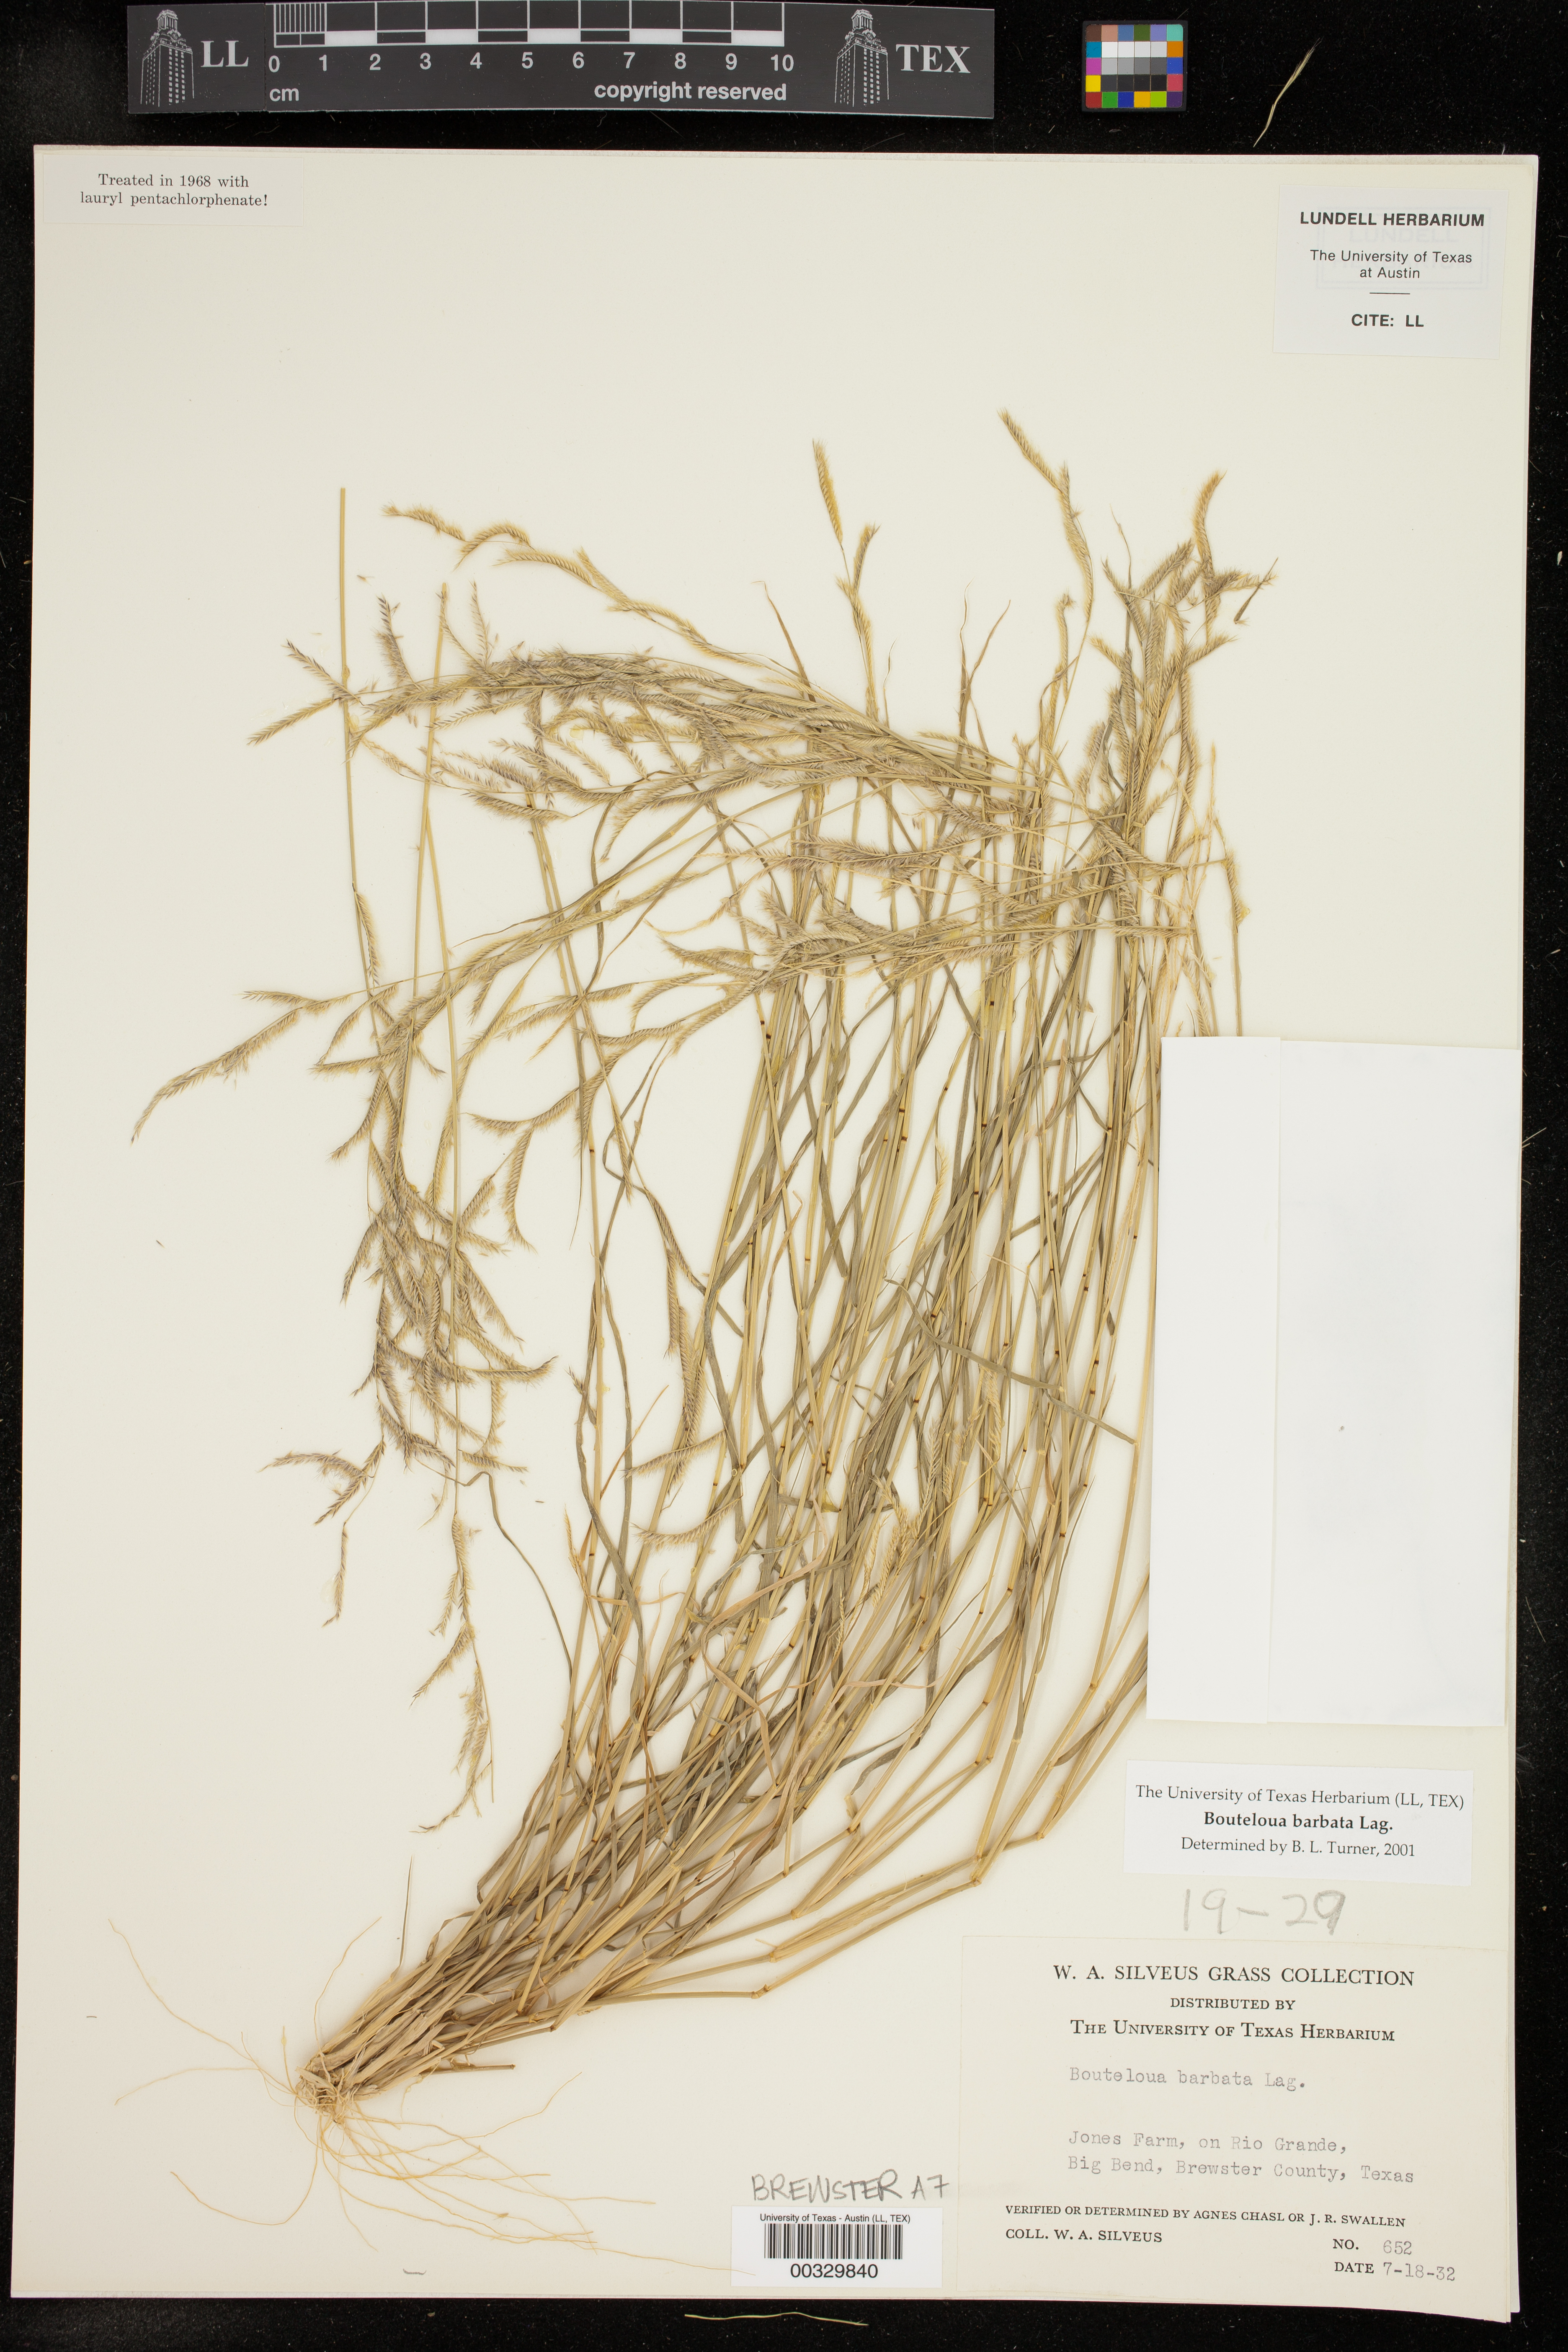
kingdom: Plantae
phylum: Tracheophyta
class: Liliopsida
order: Poales
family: Poaceae
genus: Bouteloua
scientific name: Bouteloua barbata
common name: Six-weeks grama
